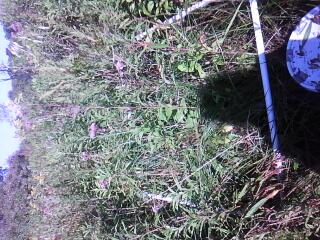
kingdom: Plantae
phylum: Tracheophyta
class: Liliopsida
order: Poales
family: Cyperaceae
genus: Carex
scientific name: Carex bebbii
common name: Bebb's sedge
